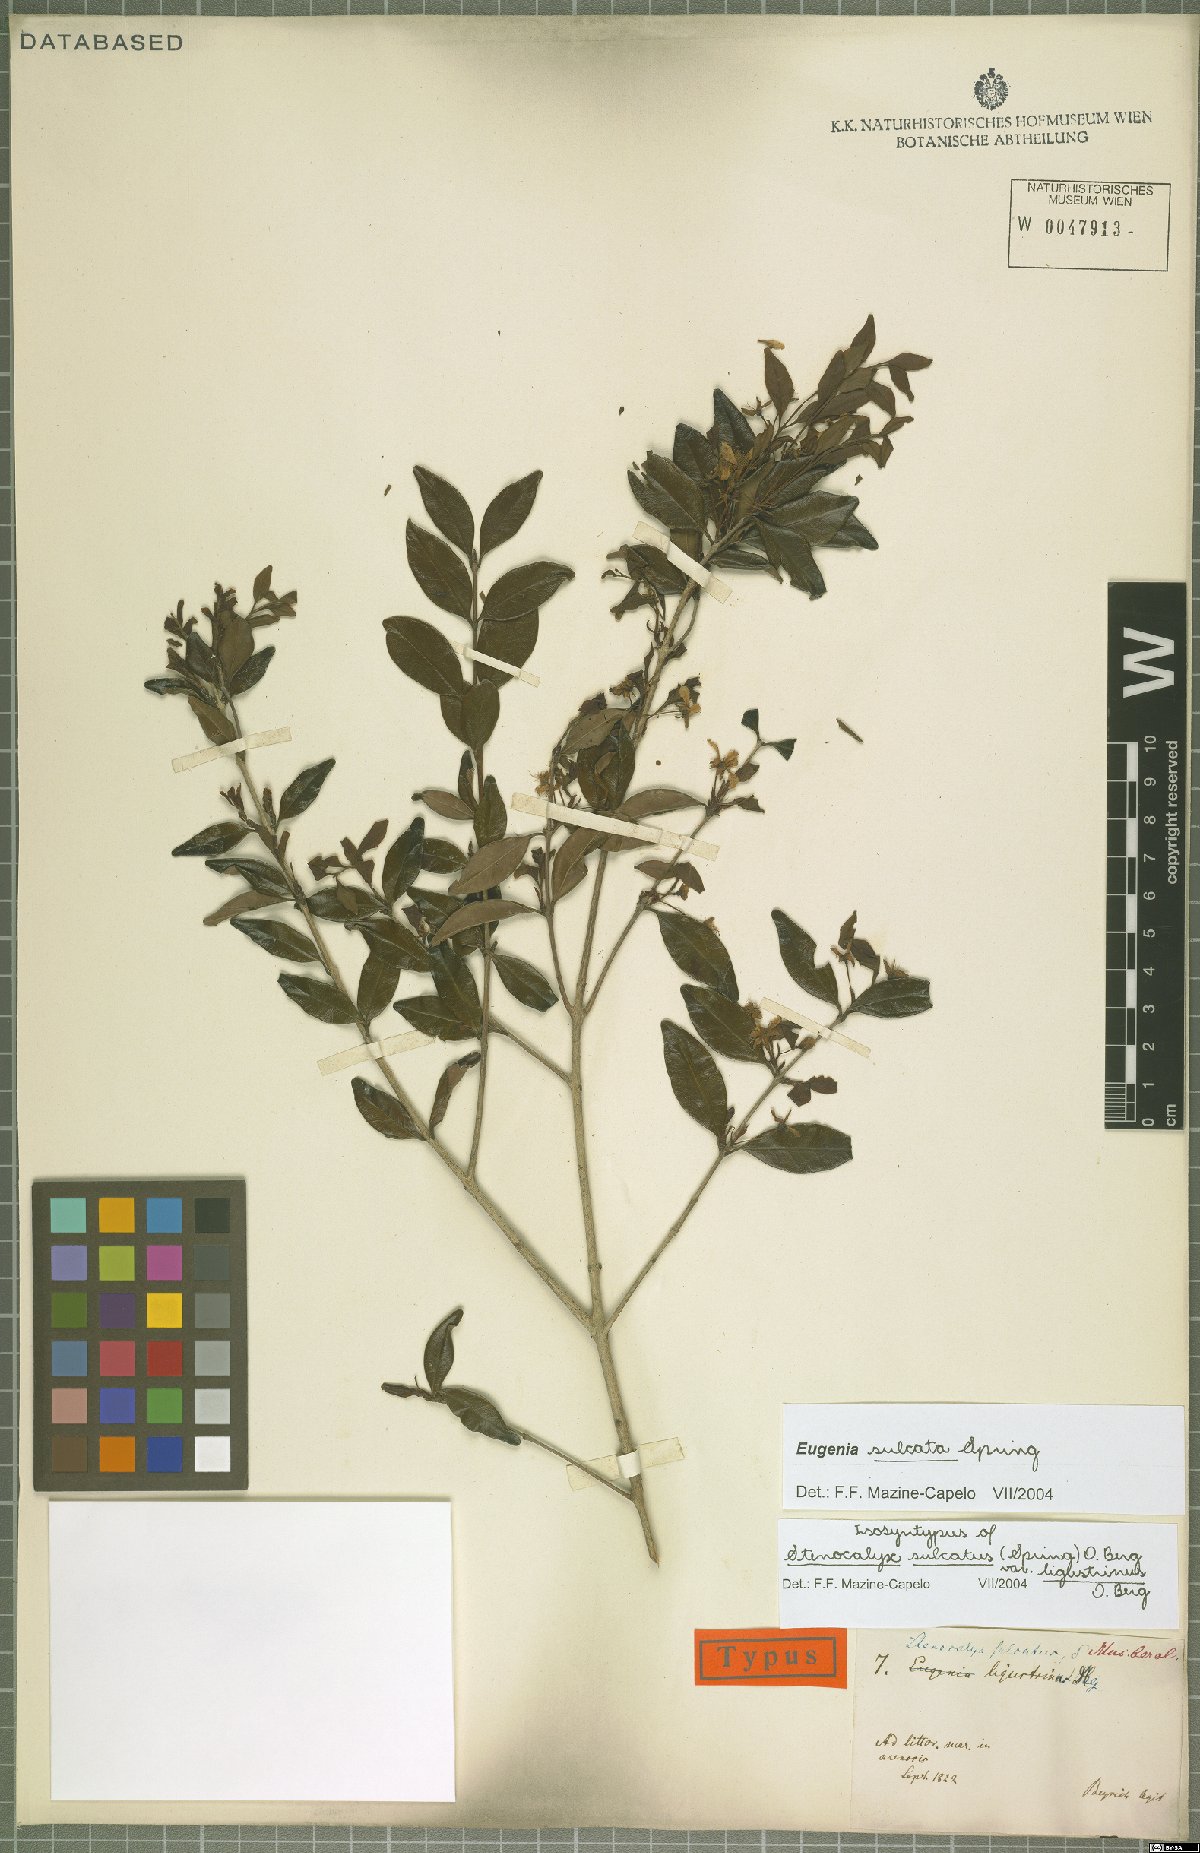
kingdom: Plantae
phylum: Tracheophyta
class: Magnoliopsida
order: Myrtales
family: Myrtaceae
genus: Eugenia
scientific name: Eugenia sulcata
